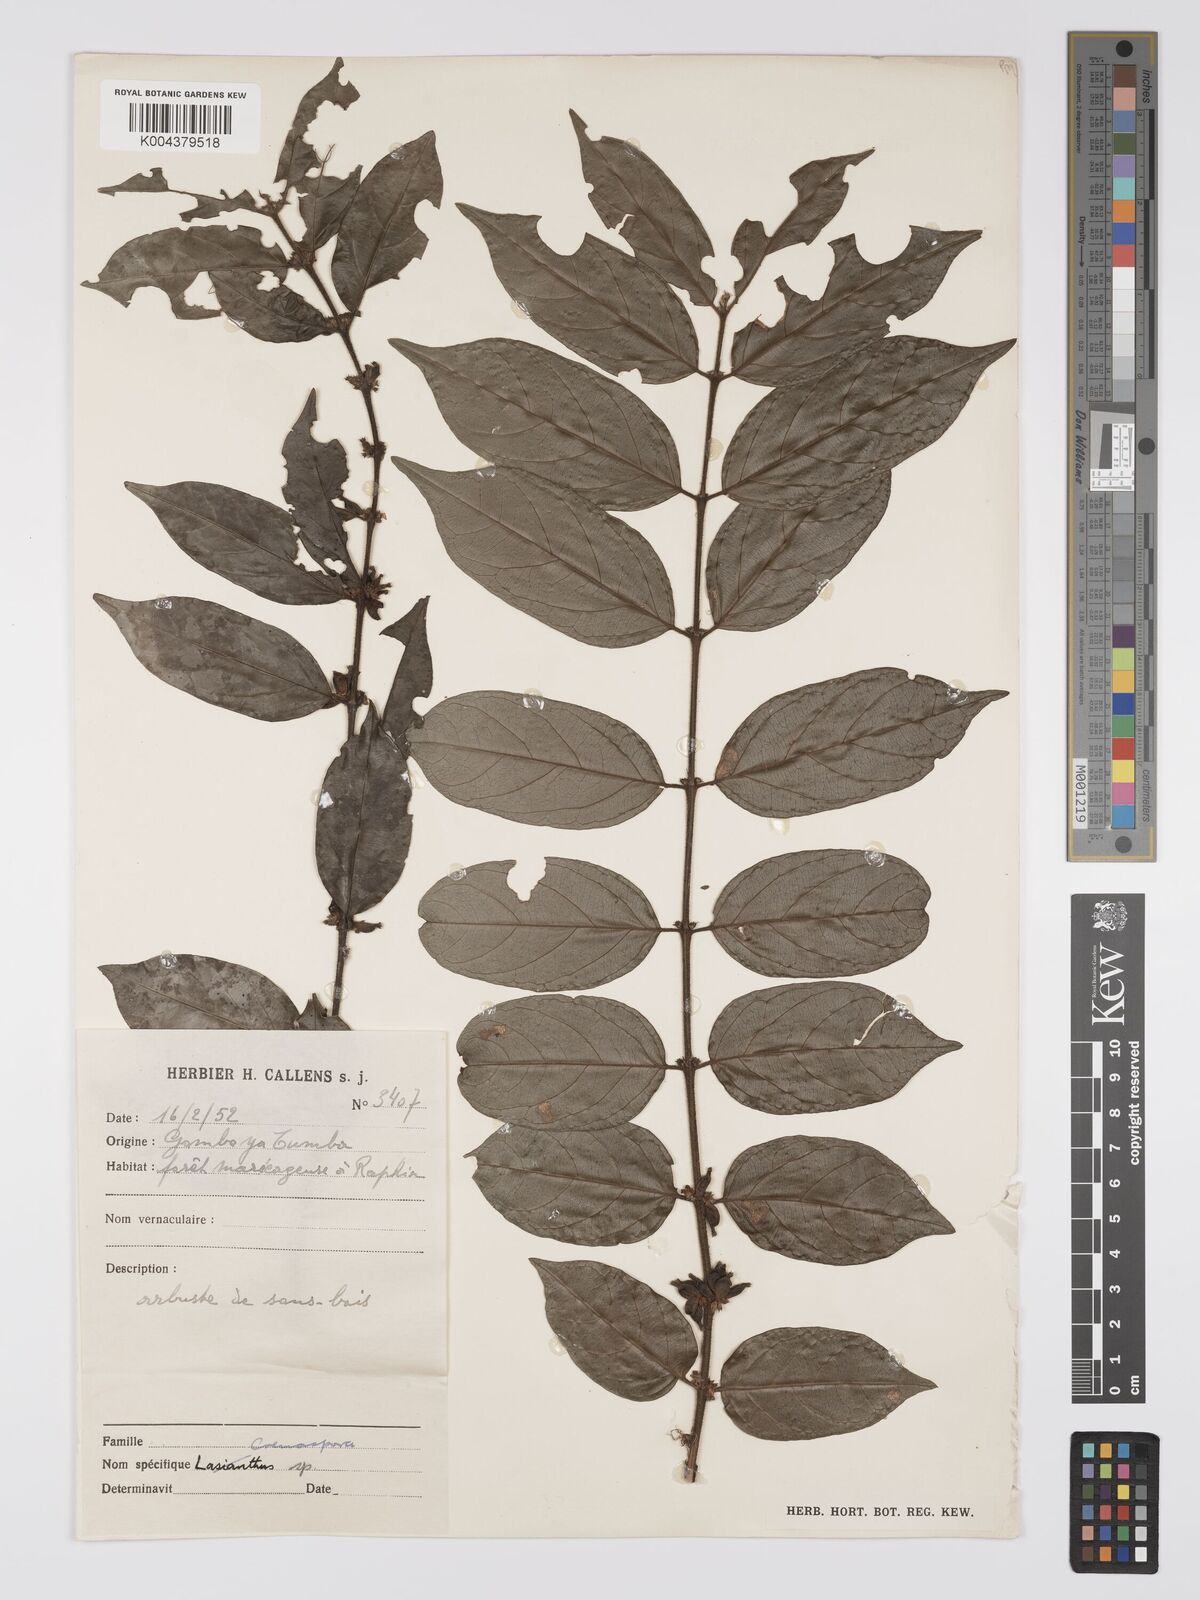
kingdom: Plantae
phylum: Tracheophyta
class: Magnoliopsida
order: Gentianales
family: Rubiaceae
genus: Cremaspora
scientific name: Cremaspora triflora
